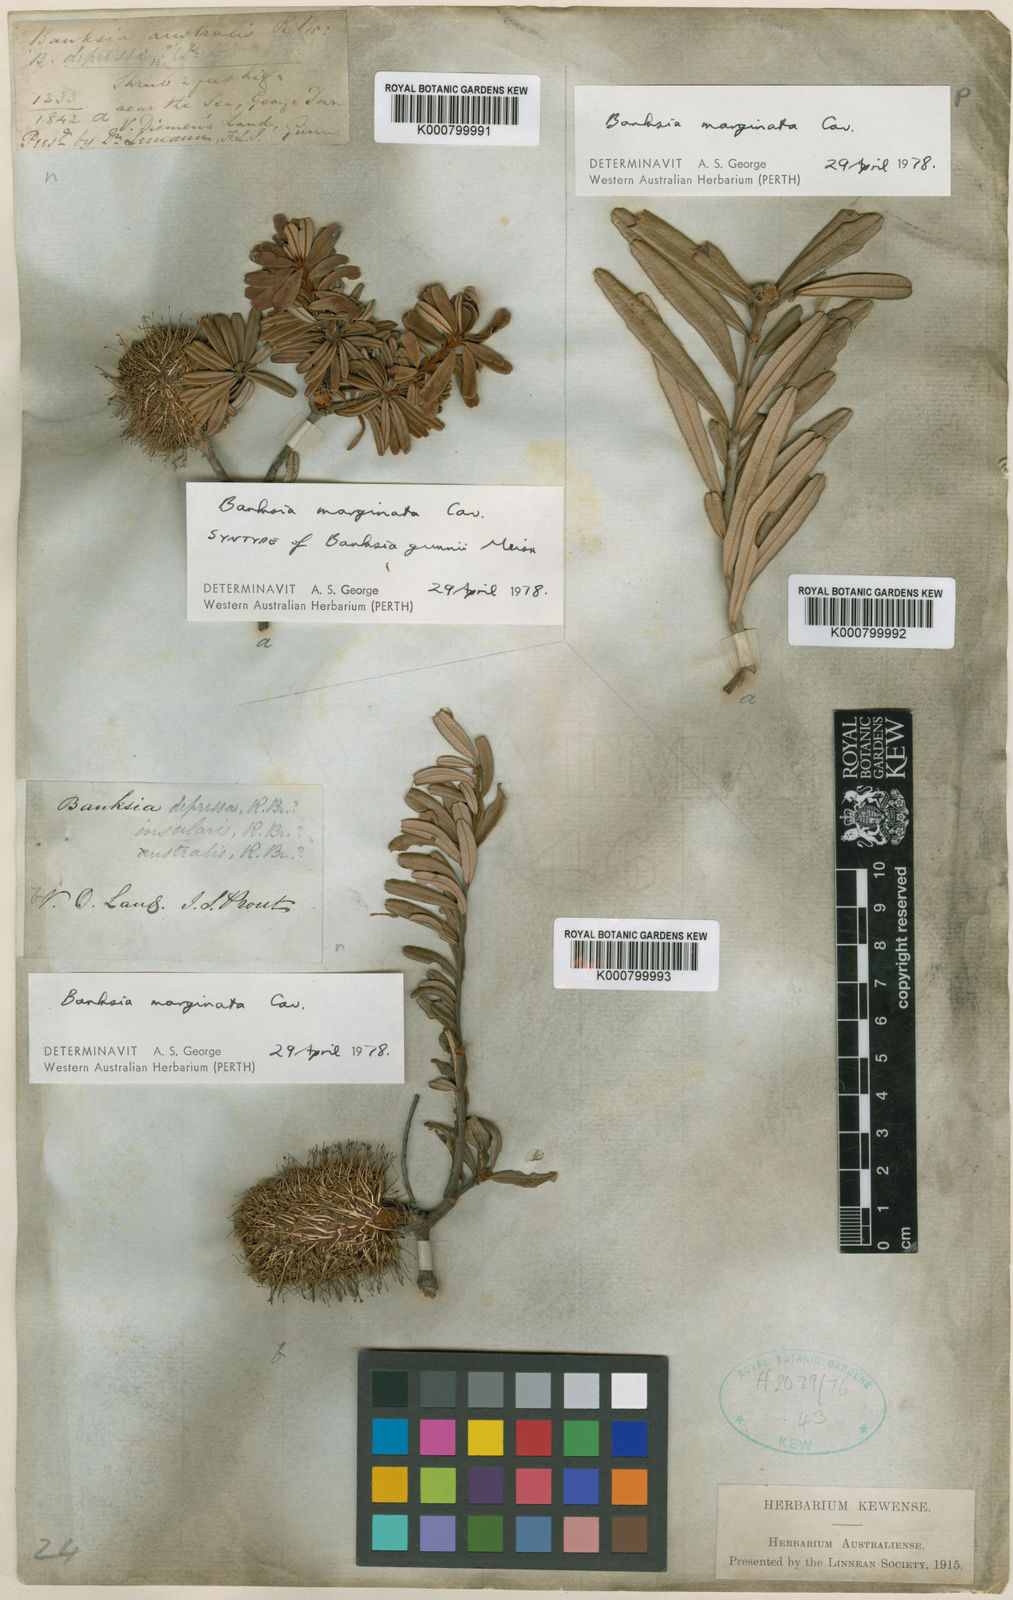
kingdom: Plantae
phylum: Tracheophyta
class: Magnoliopsida
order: Proteales
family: Proteaceae
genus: Banksia
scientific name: Banksia marginata
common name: Silver banksia
